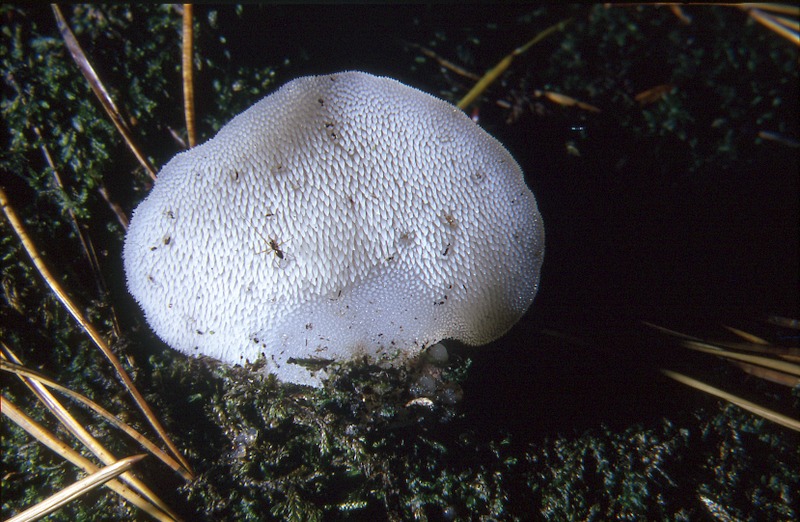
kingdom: Fungi
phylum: Basidiomycota
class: Agaricomycetes
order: Auriculariales
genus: Pseudohydnum
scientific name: Pseudohydnum gelatinosum
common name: Jelly tongue
